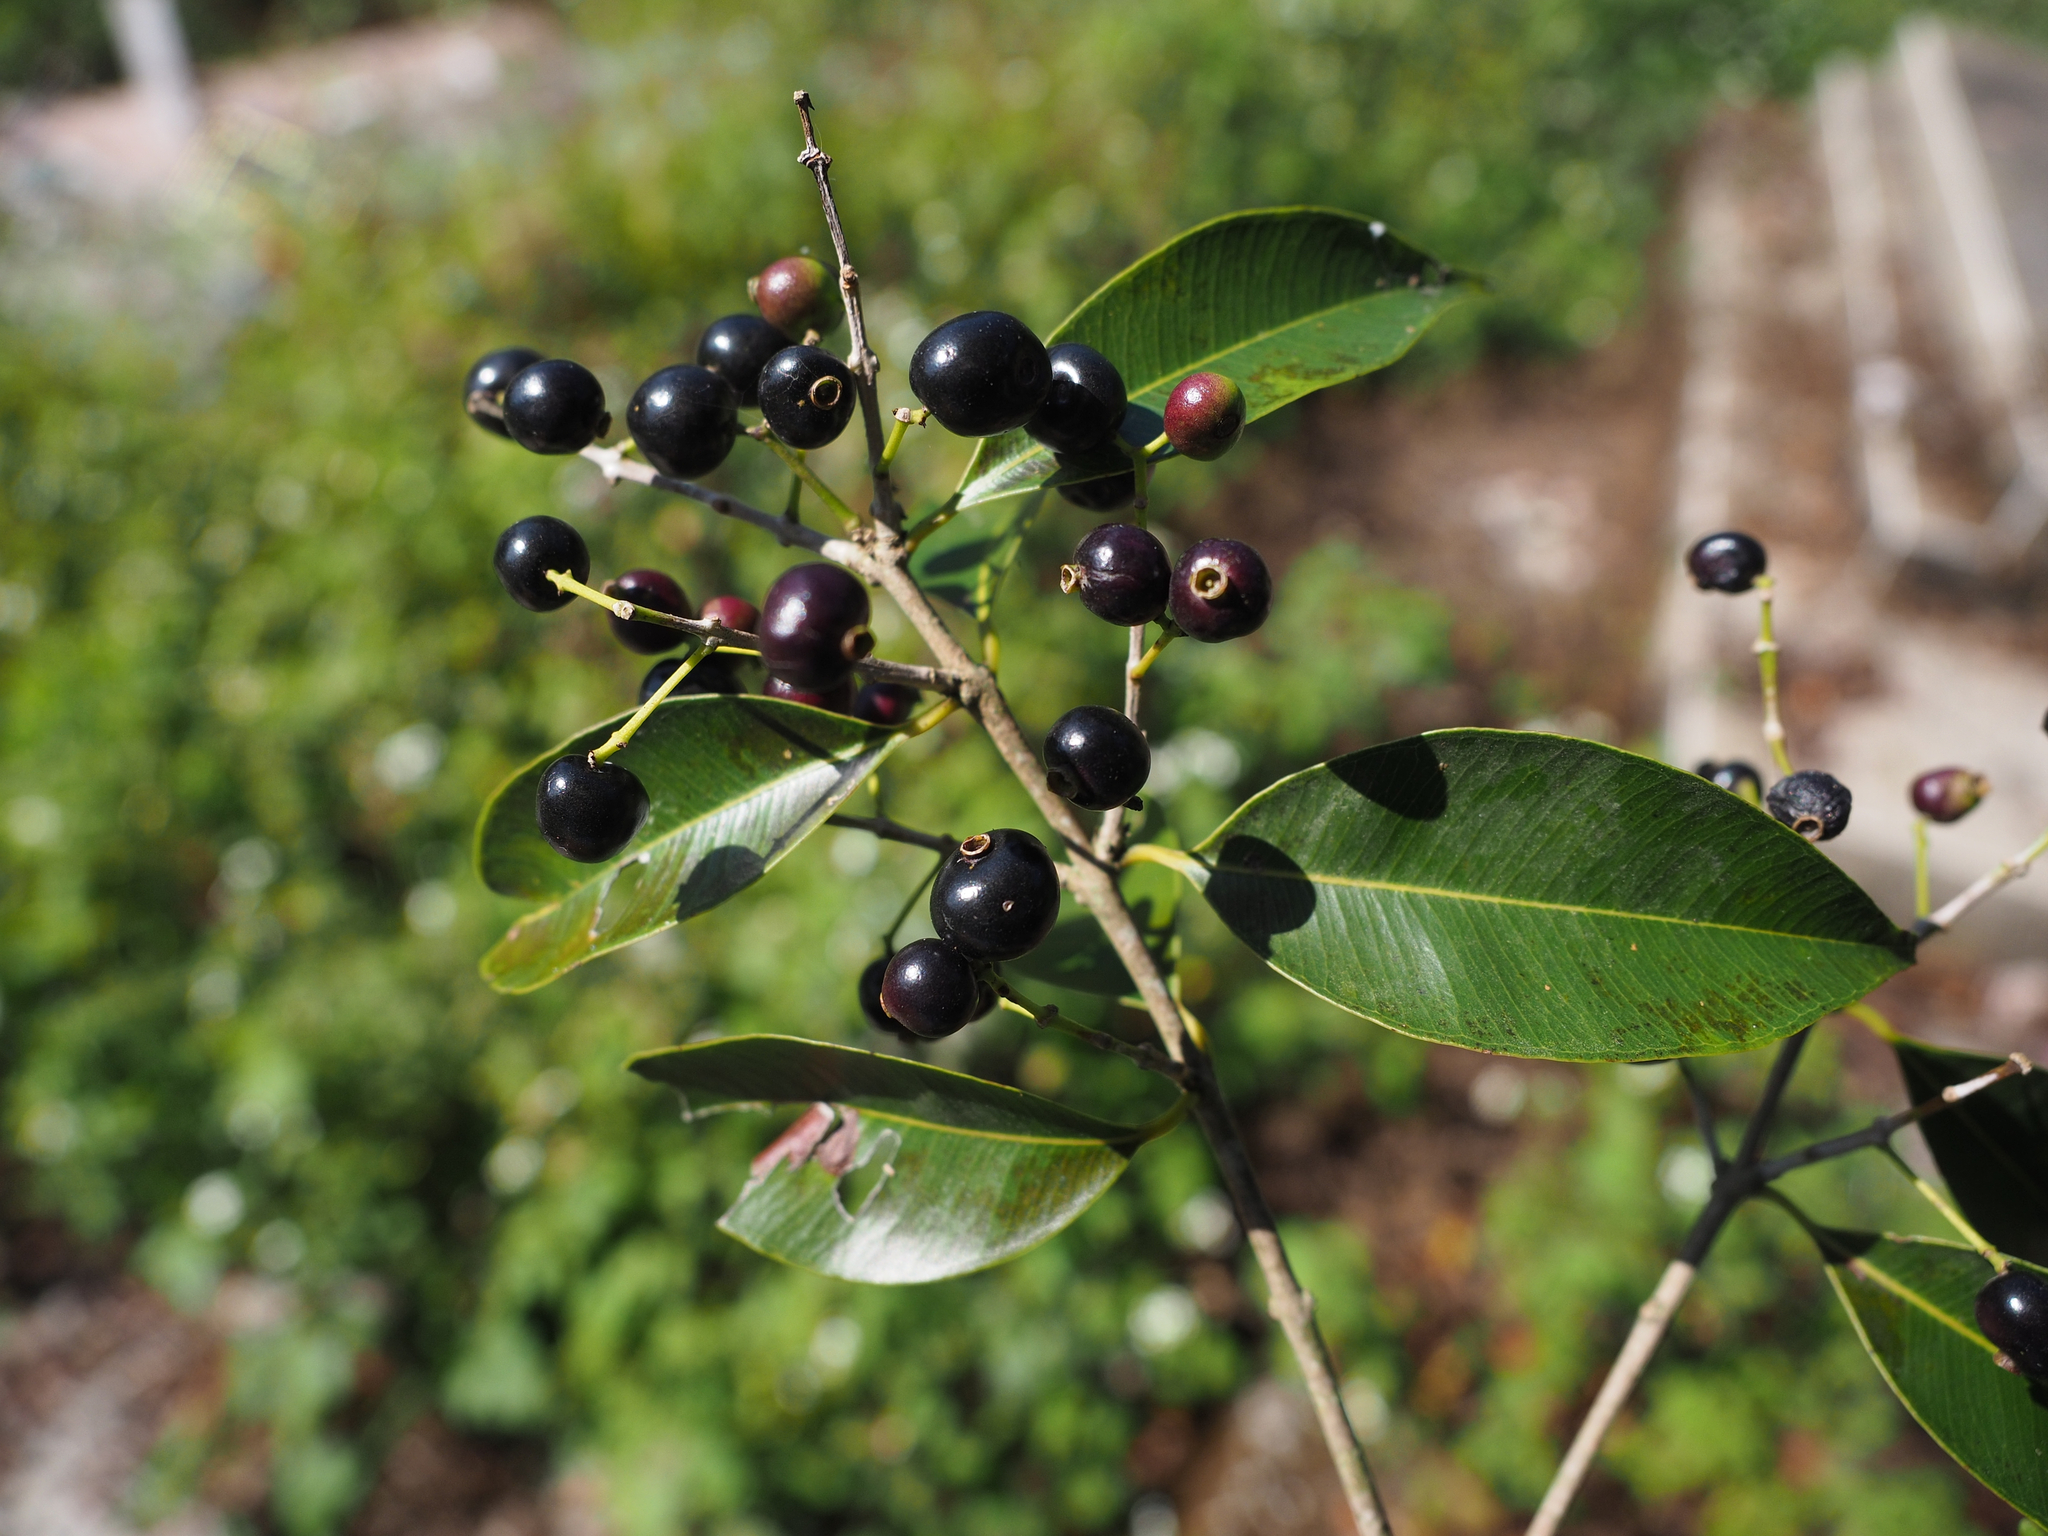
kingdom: Plantae
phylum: Tracheophyta
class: Magnoliopsida
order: Myrtales
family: Myrtaceae
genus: Syzygium
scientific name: Syzygium formosanum
